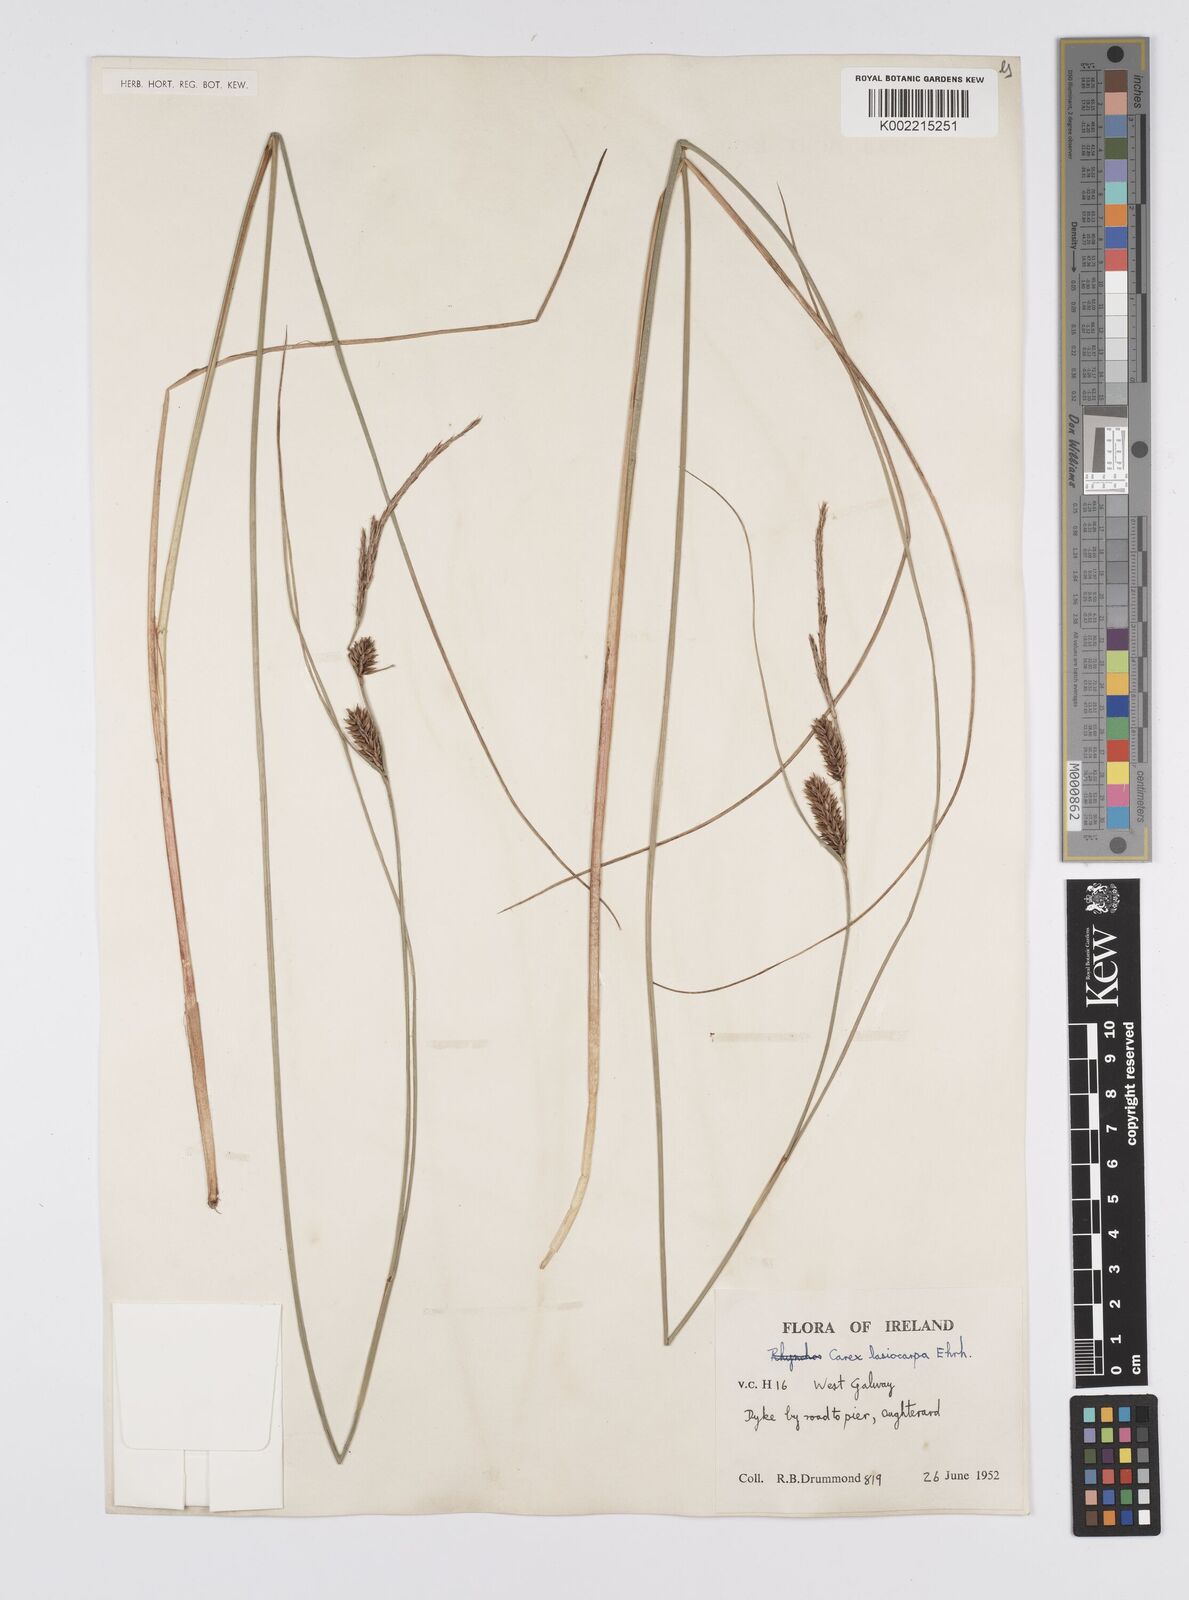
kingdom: Plantae
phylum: Tracheophyta
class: Liliopsida
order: Poales
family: Cyperaceae
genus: Carex
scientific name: Carex lasiocarpa
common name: Slender sedge
